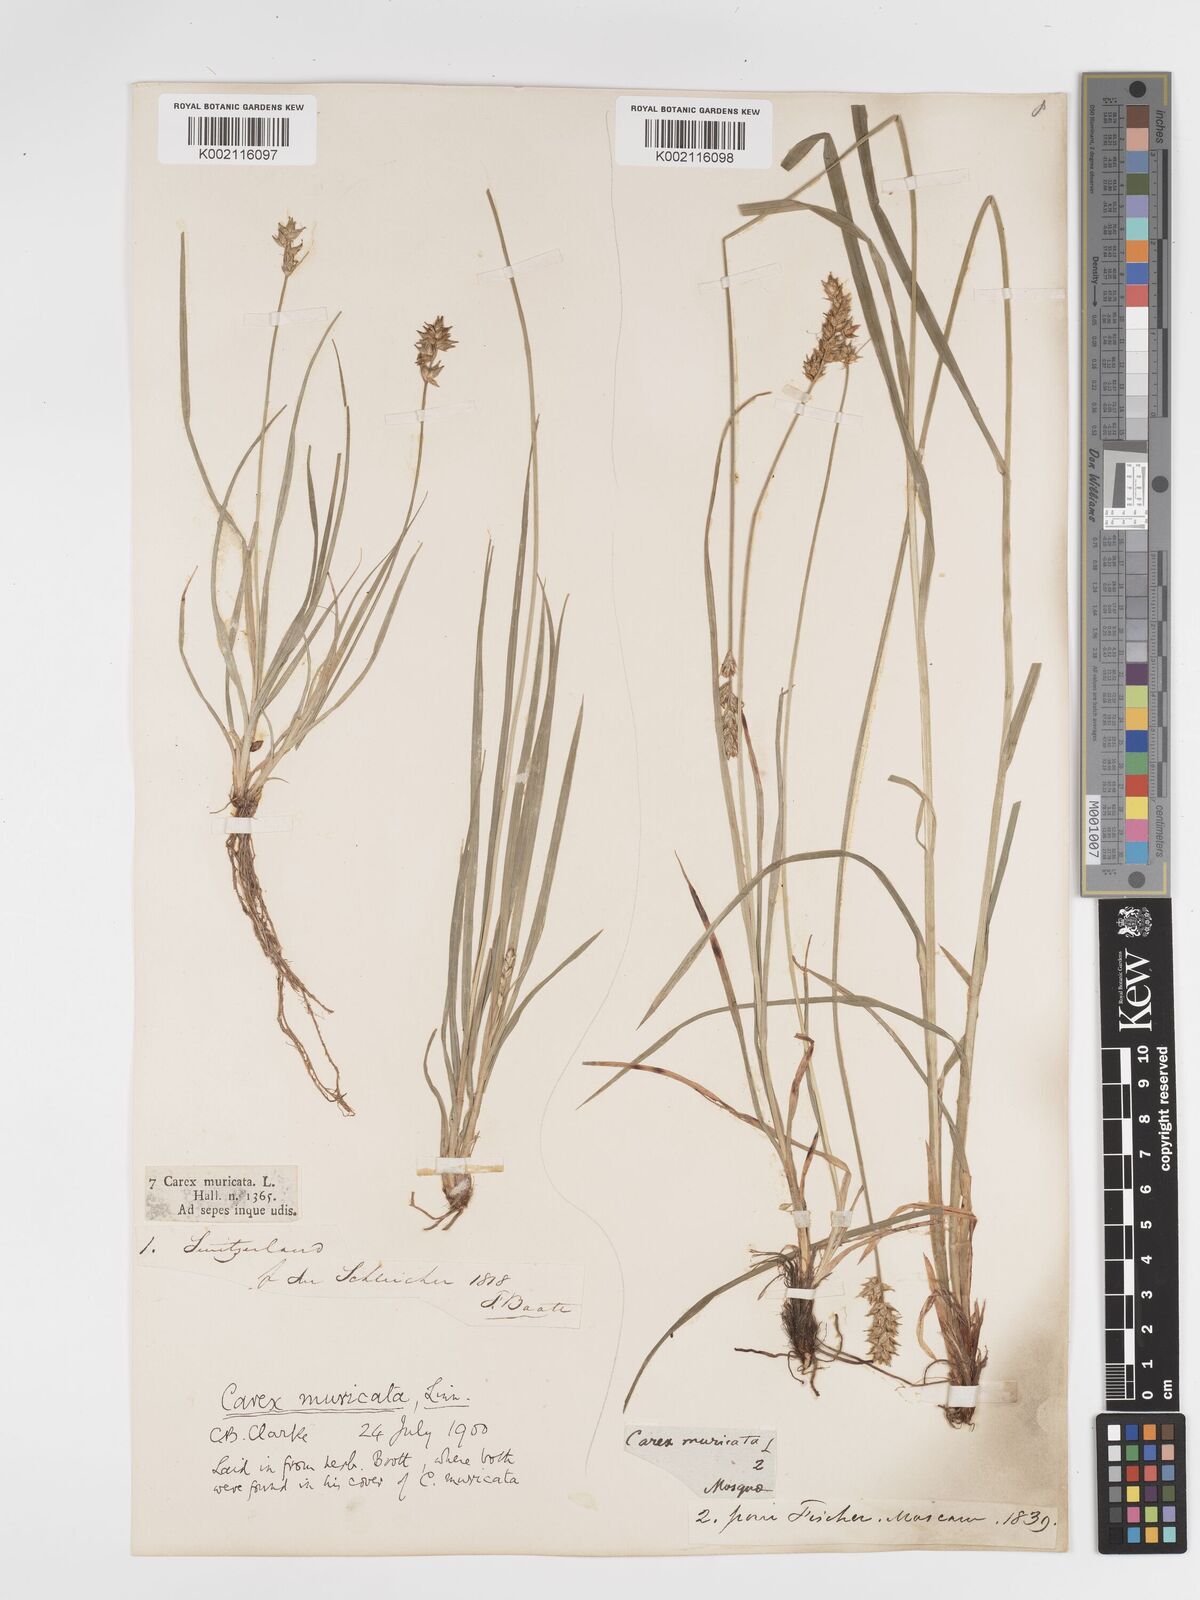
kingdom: Plantae
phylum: Tracheophyta
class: Liliopsida
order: Poales
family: Cyperaceae
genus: Carex
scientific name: Carex spicata
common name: Spiked sedge
